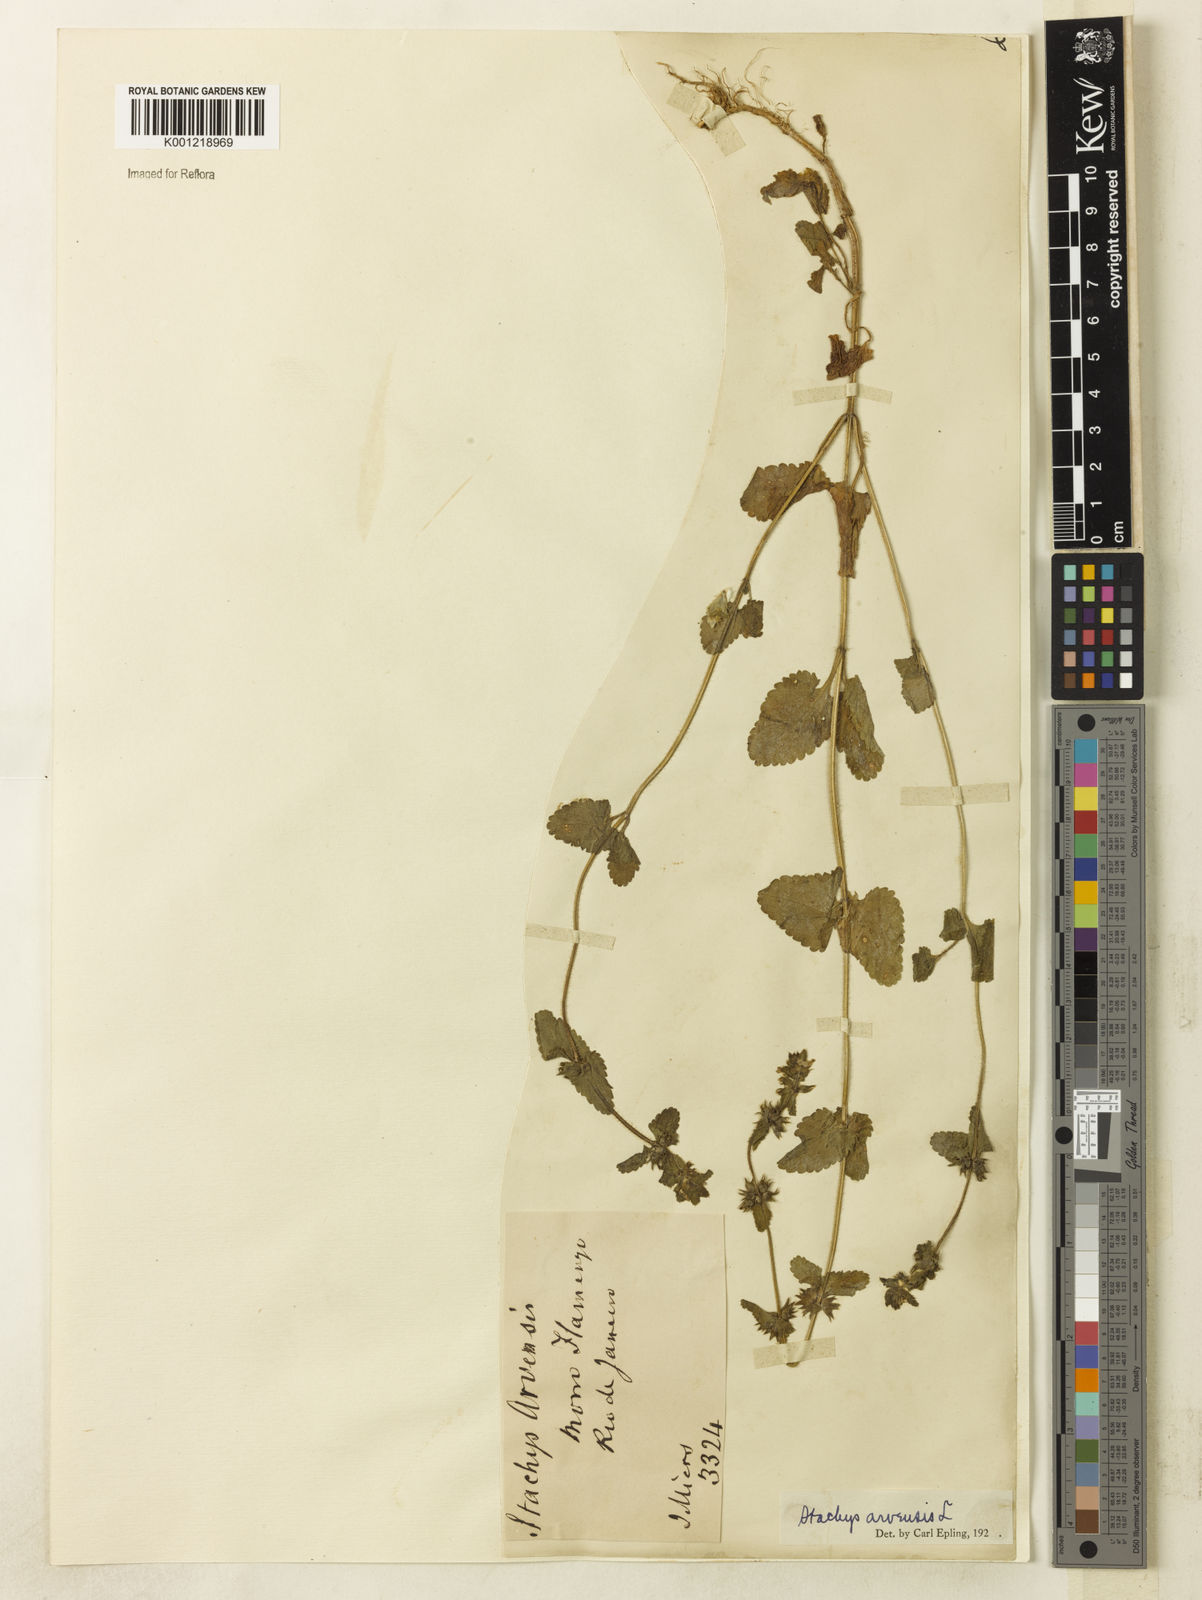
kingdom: Plantae
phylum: Tracheophyta
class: Magnoliopsida
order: Lamiales
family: Lamiaceae
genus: Stachys
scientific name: Stachys arvensis
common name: Field woundwort
